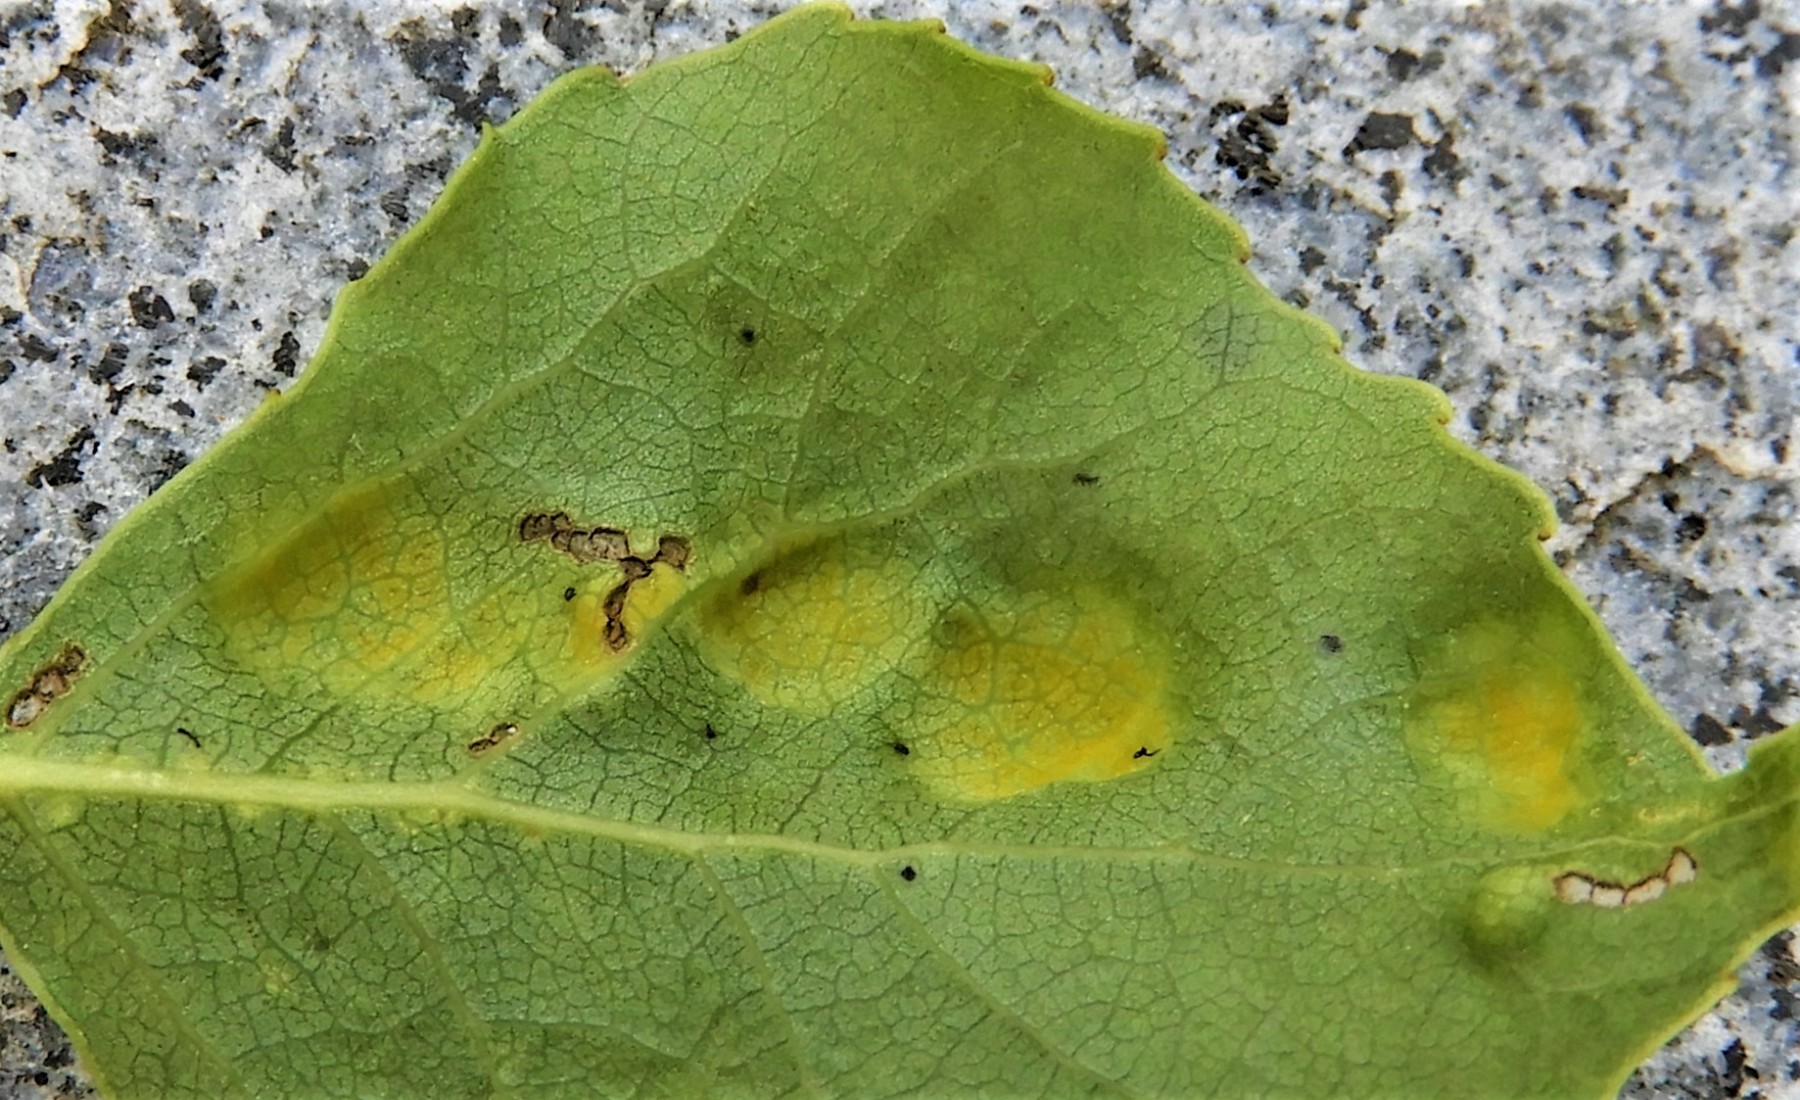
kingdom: Fungi
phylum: Ascomycota
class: Taphrinomycetes
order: Taphrinales
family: Taphrinaceae
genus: Taphrina
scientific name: Taphrina populina
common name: Poplar leaf curl
